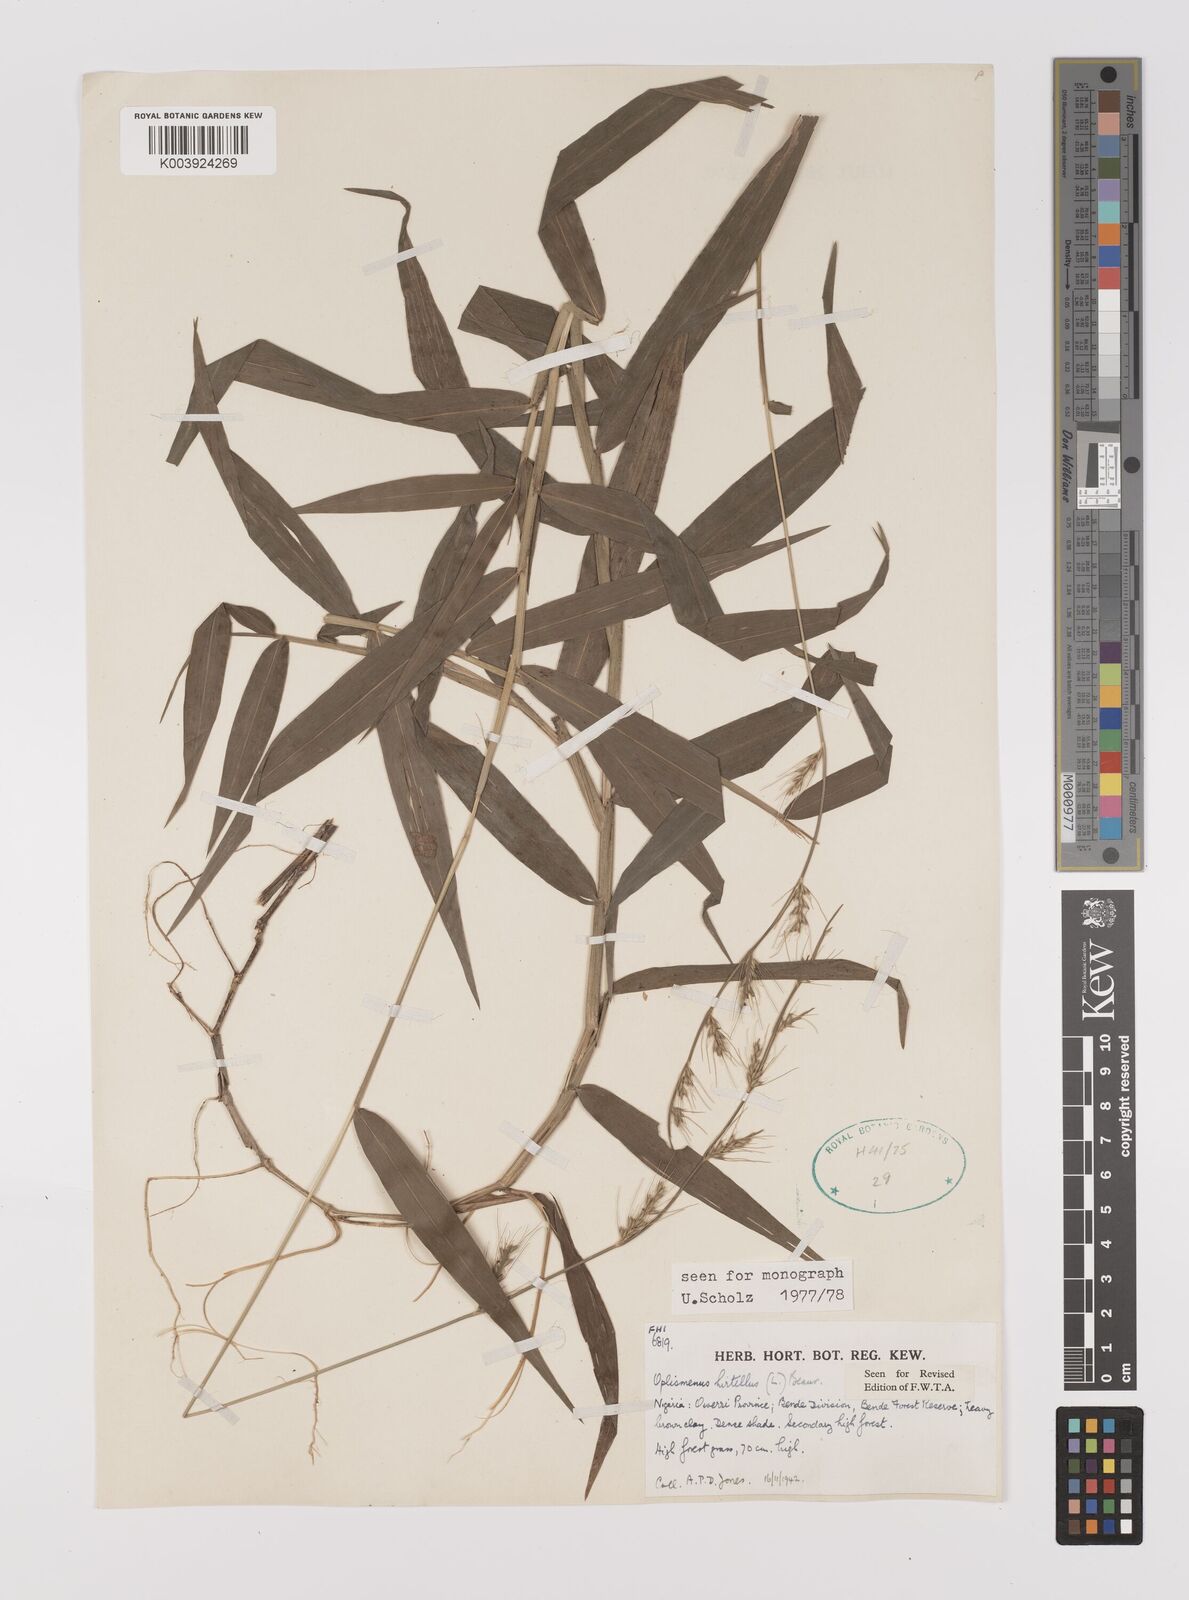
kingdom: Plantae
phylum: Tracheophyta
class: Liliopsida
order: Poales
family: Poaceae
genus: Oplismenus
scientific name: Oplismenus hirtellus
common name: Basketgrass
